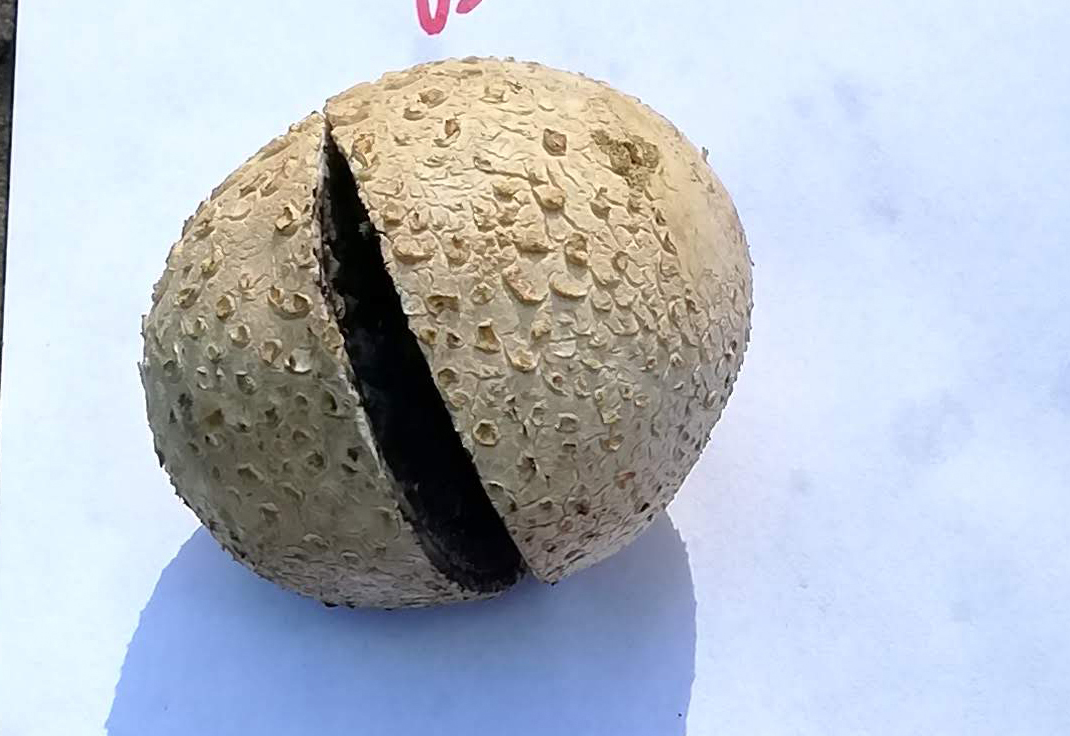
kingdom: Fungi
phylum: Basidiomycota
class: Agaricomycetes
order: Boletales
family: Sclerodermataceae
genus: Scleroderma
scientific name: Scleroderma citrinum
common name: almindelig bruskbold
